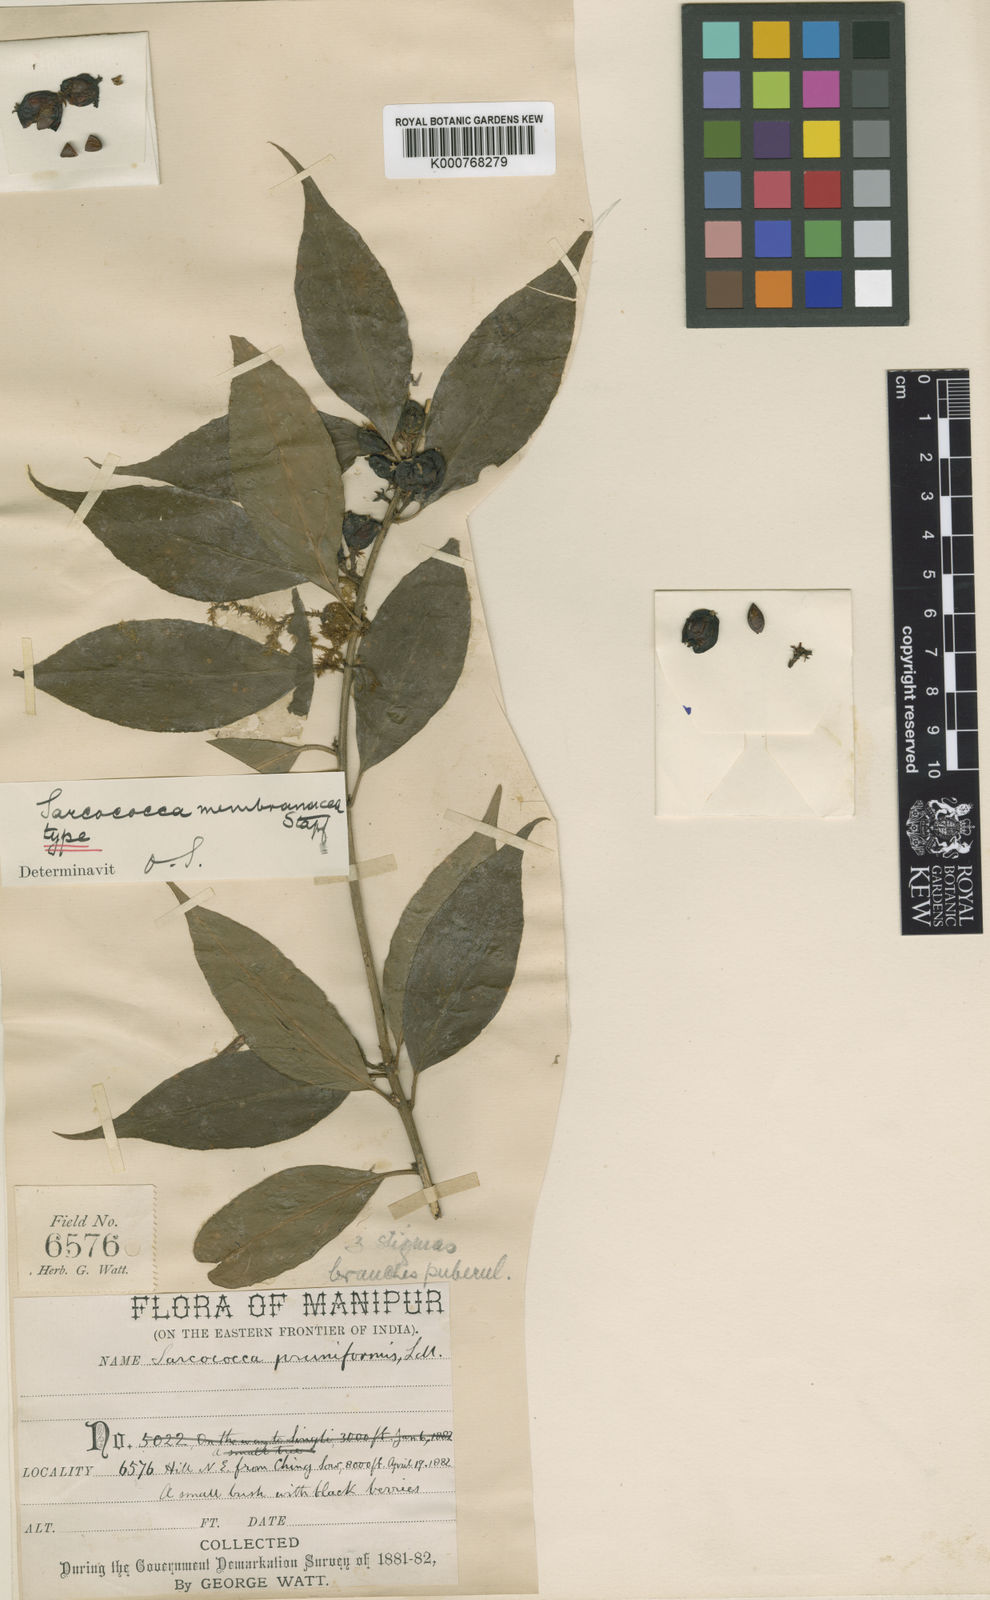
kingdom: Plantae
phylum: Tracheophyta
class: Magnoliopsida
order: Buxales
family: Buxaceae
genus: Sarcococca
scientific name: Sarcococca wallichii
